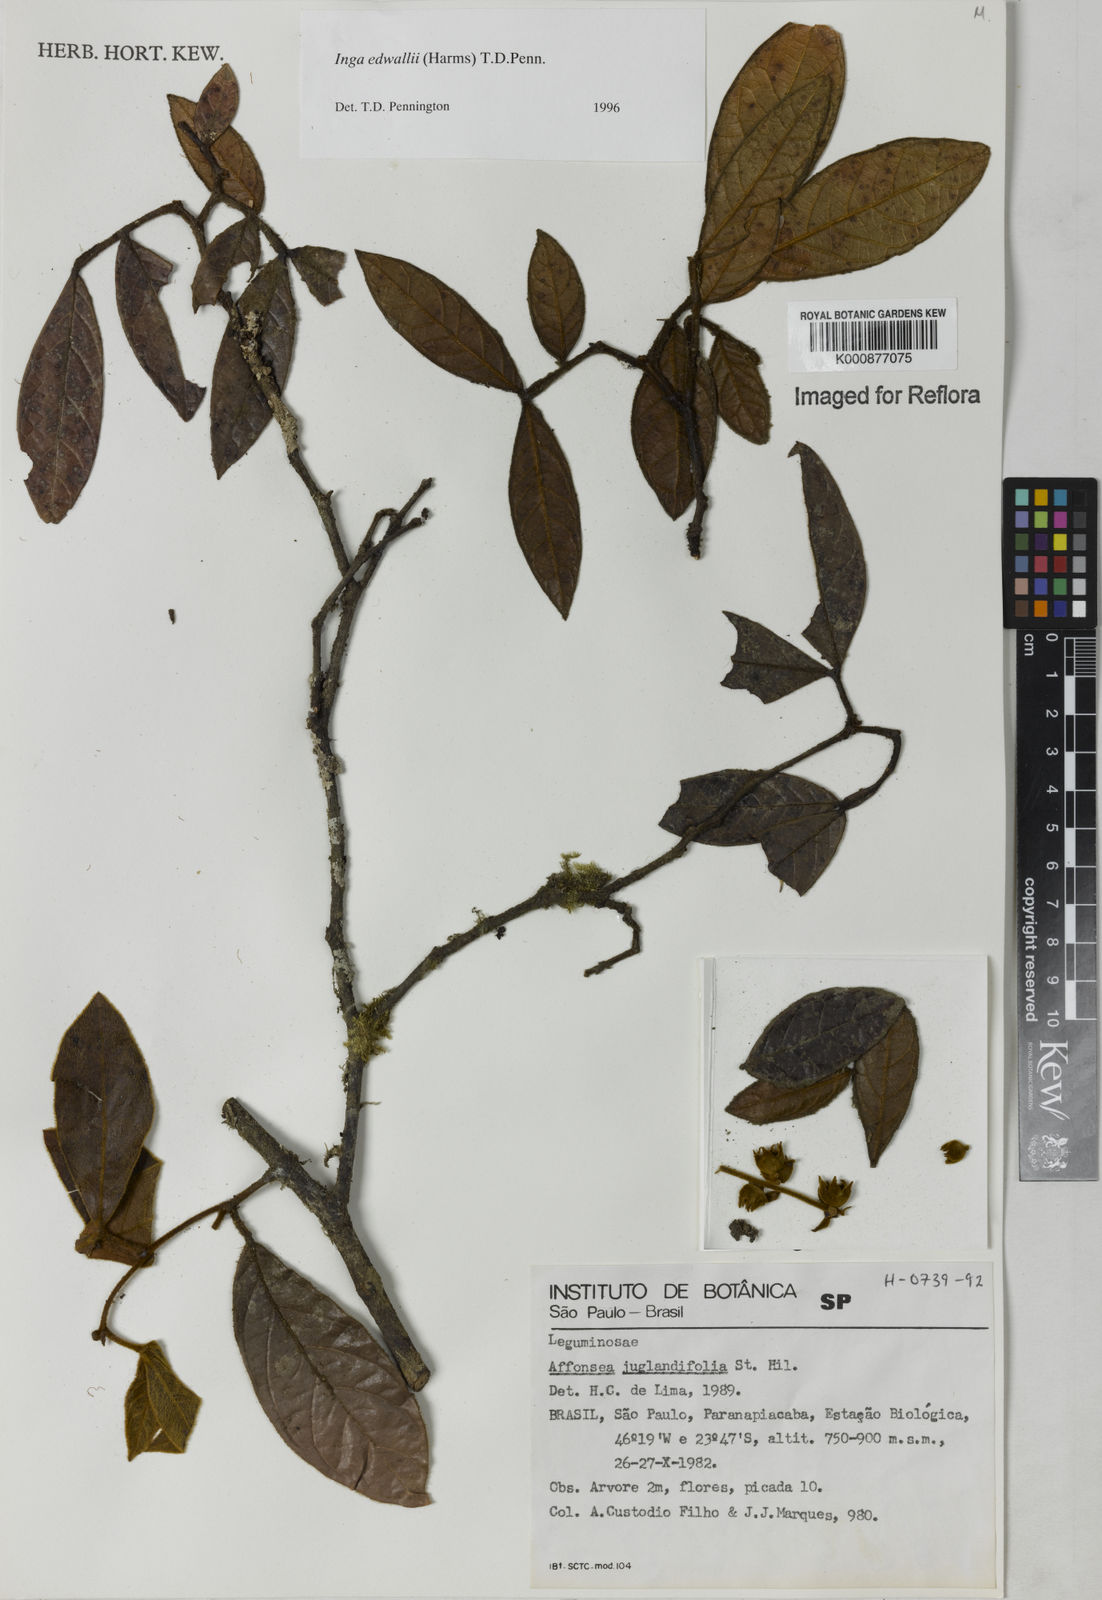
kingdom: Plantae
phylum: Tracheophyta
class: Magnoliopsida
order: Fabales
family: Fabaceae
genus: Inga
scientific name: Inga edwallii
